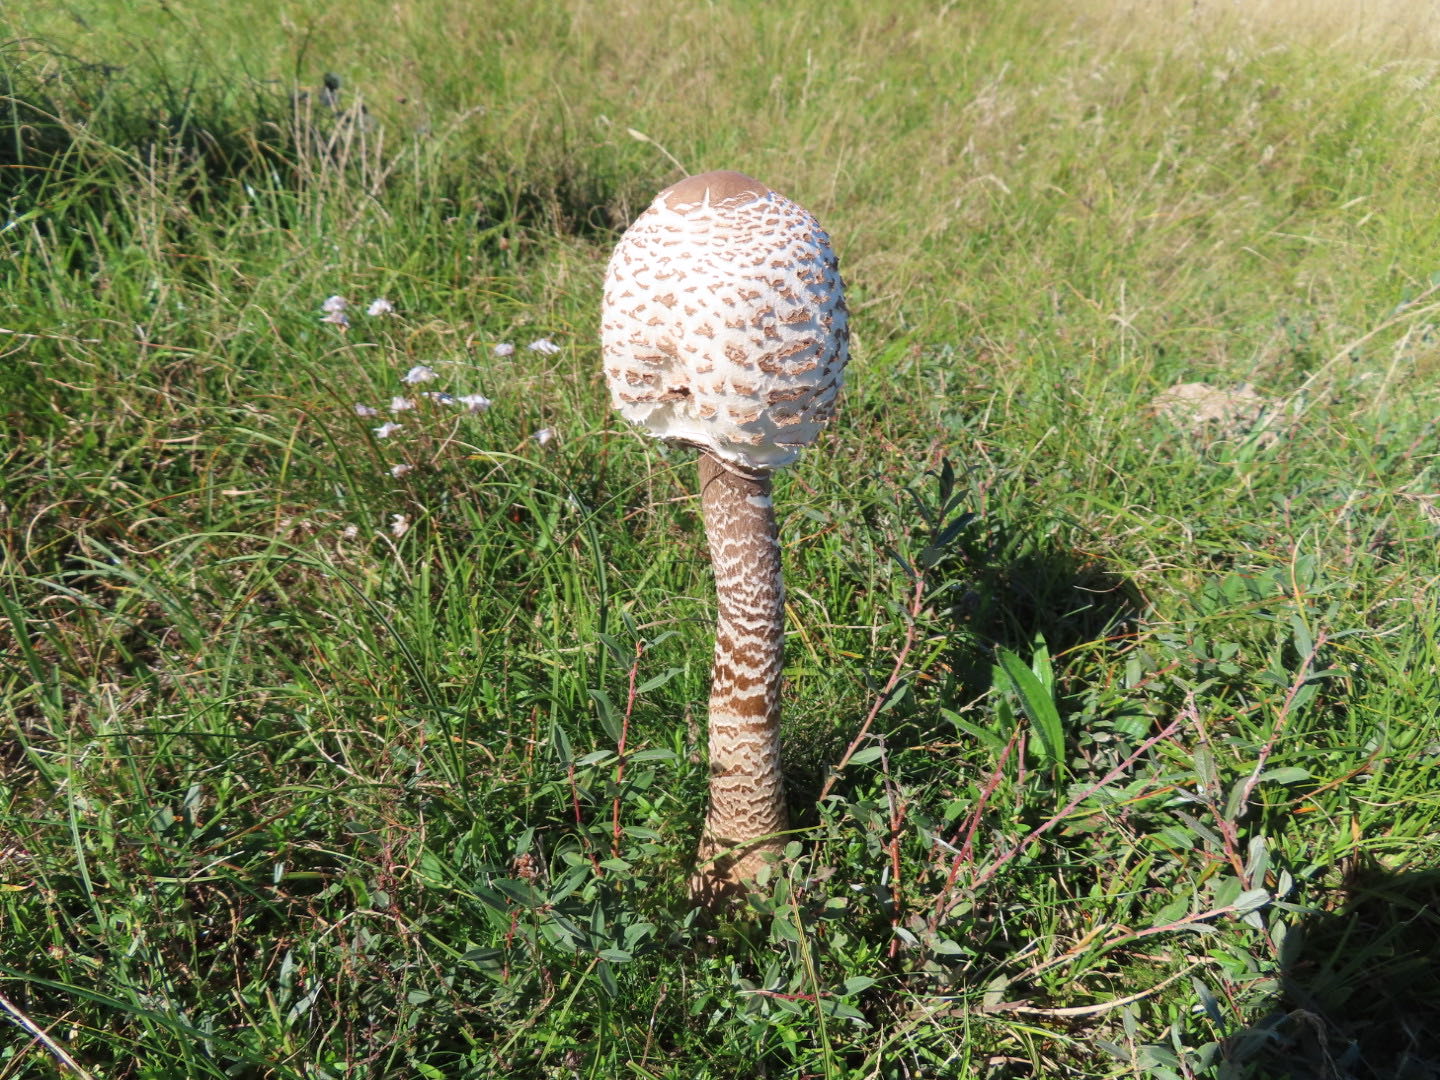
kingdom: Fungi
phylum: Basidiomycota
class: Agaricomycetes
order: Agaricales
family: Agaricaceae
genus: Macrolepiota
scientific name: Macrolepiota procera
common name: stor kæmpeparasolhat
